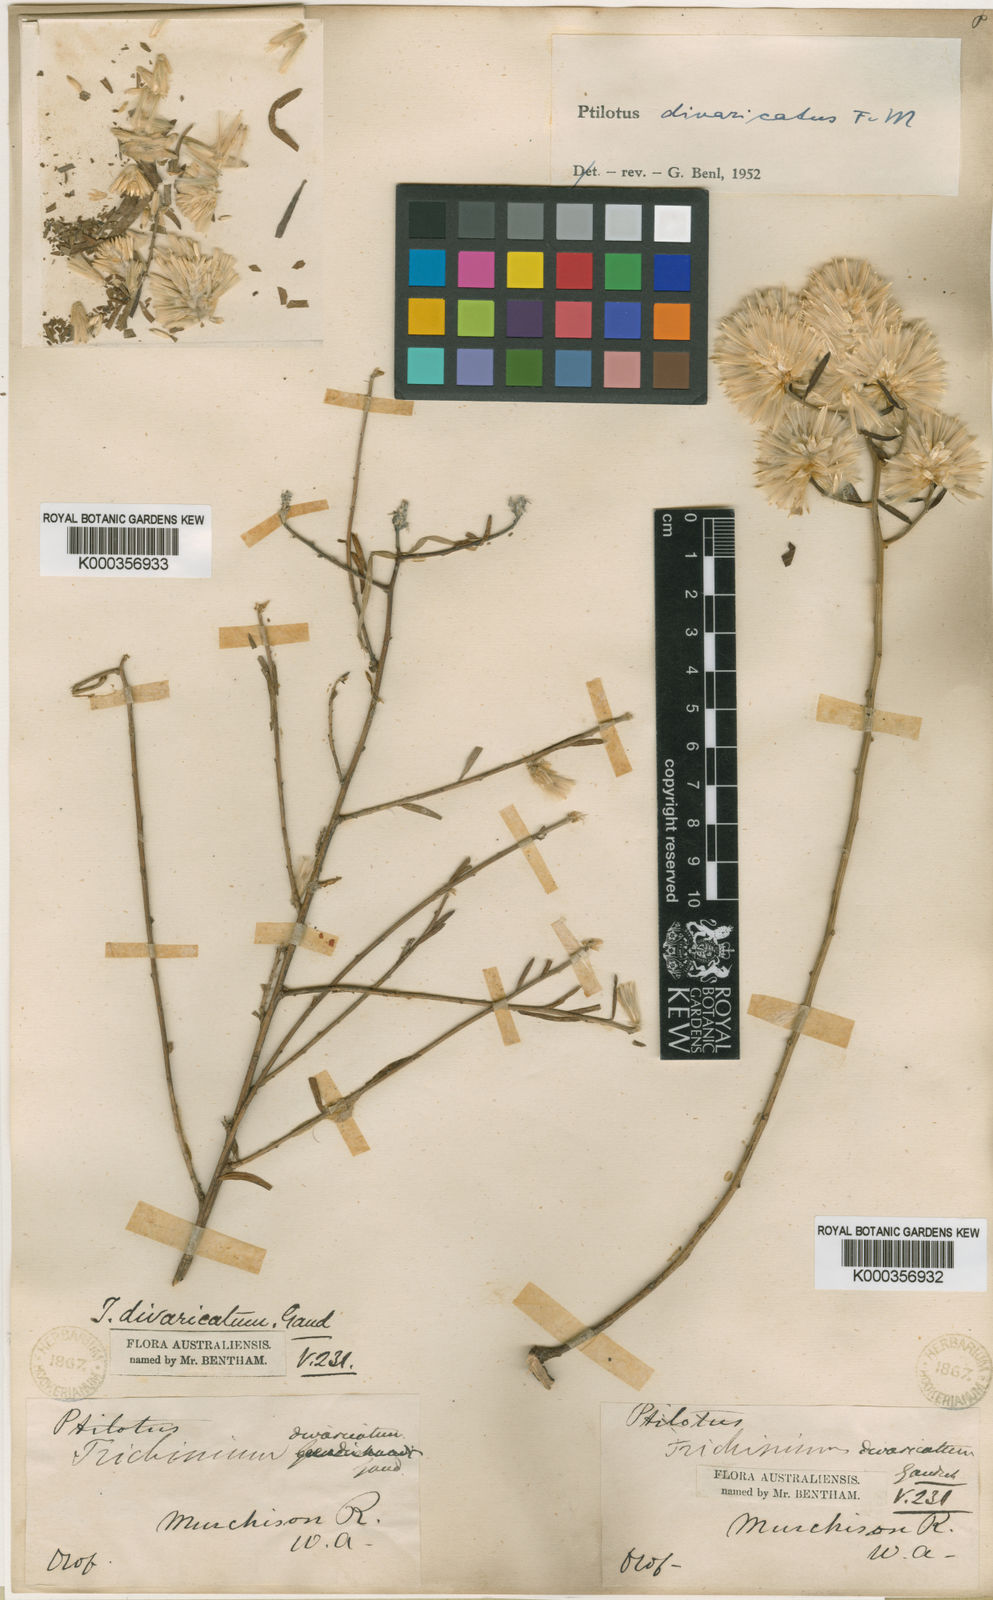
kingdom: Plantae
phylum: Tracheophyta
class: Magnoliopsida
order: Caryophyllales
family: Amaranthaceae
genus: Ptilotus
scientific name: Ptilotus divaricatus
